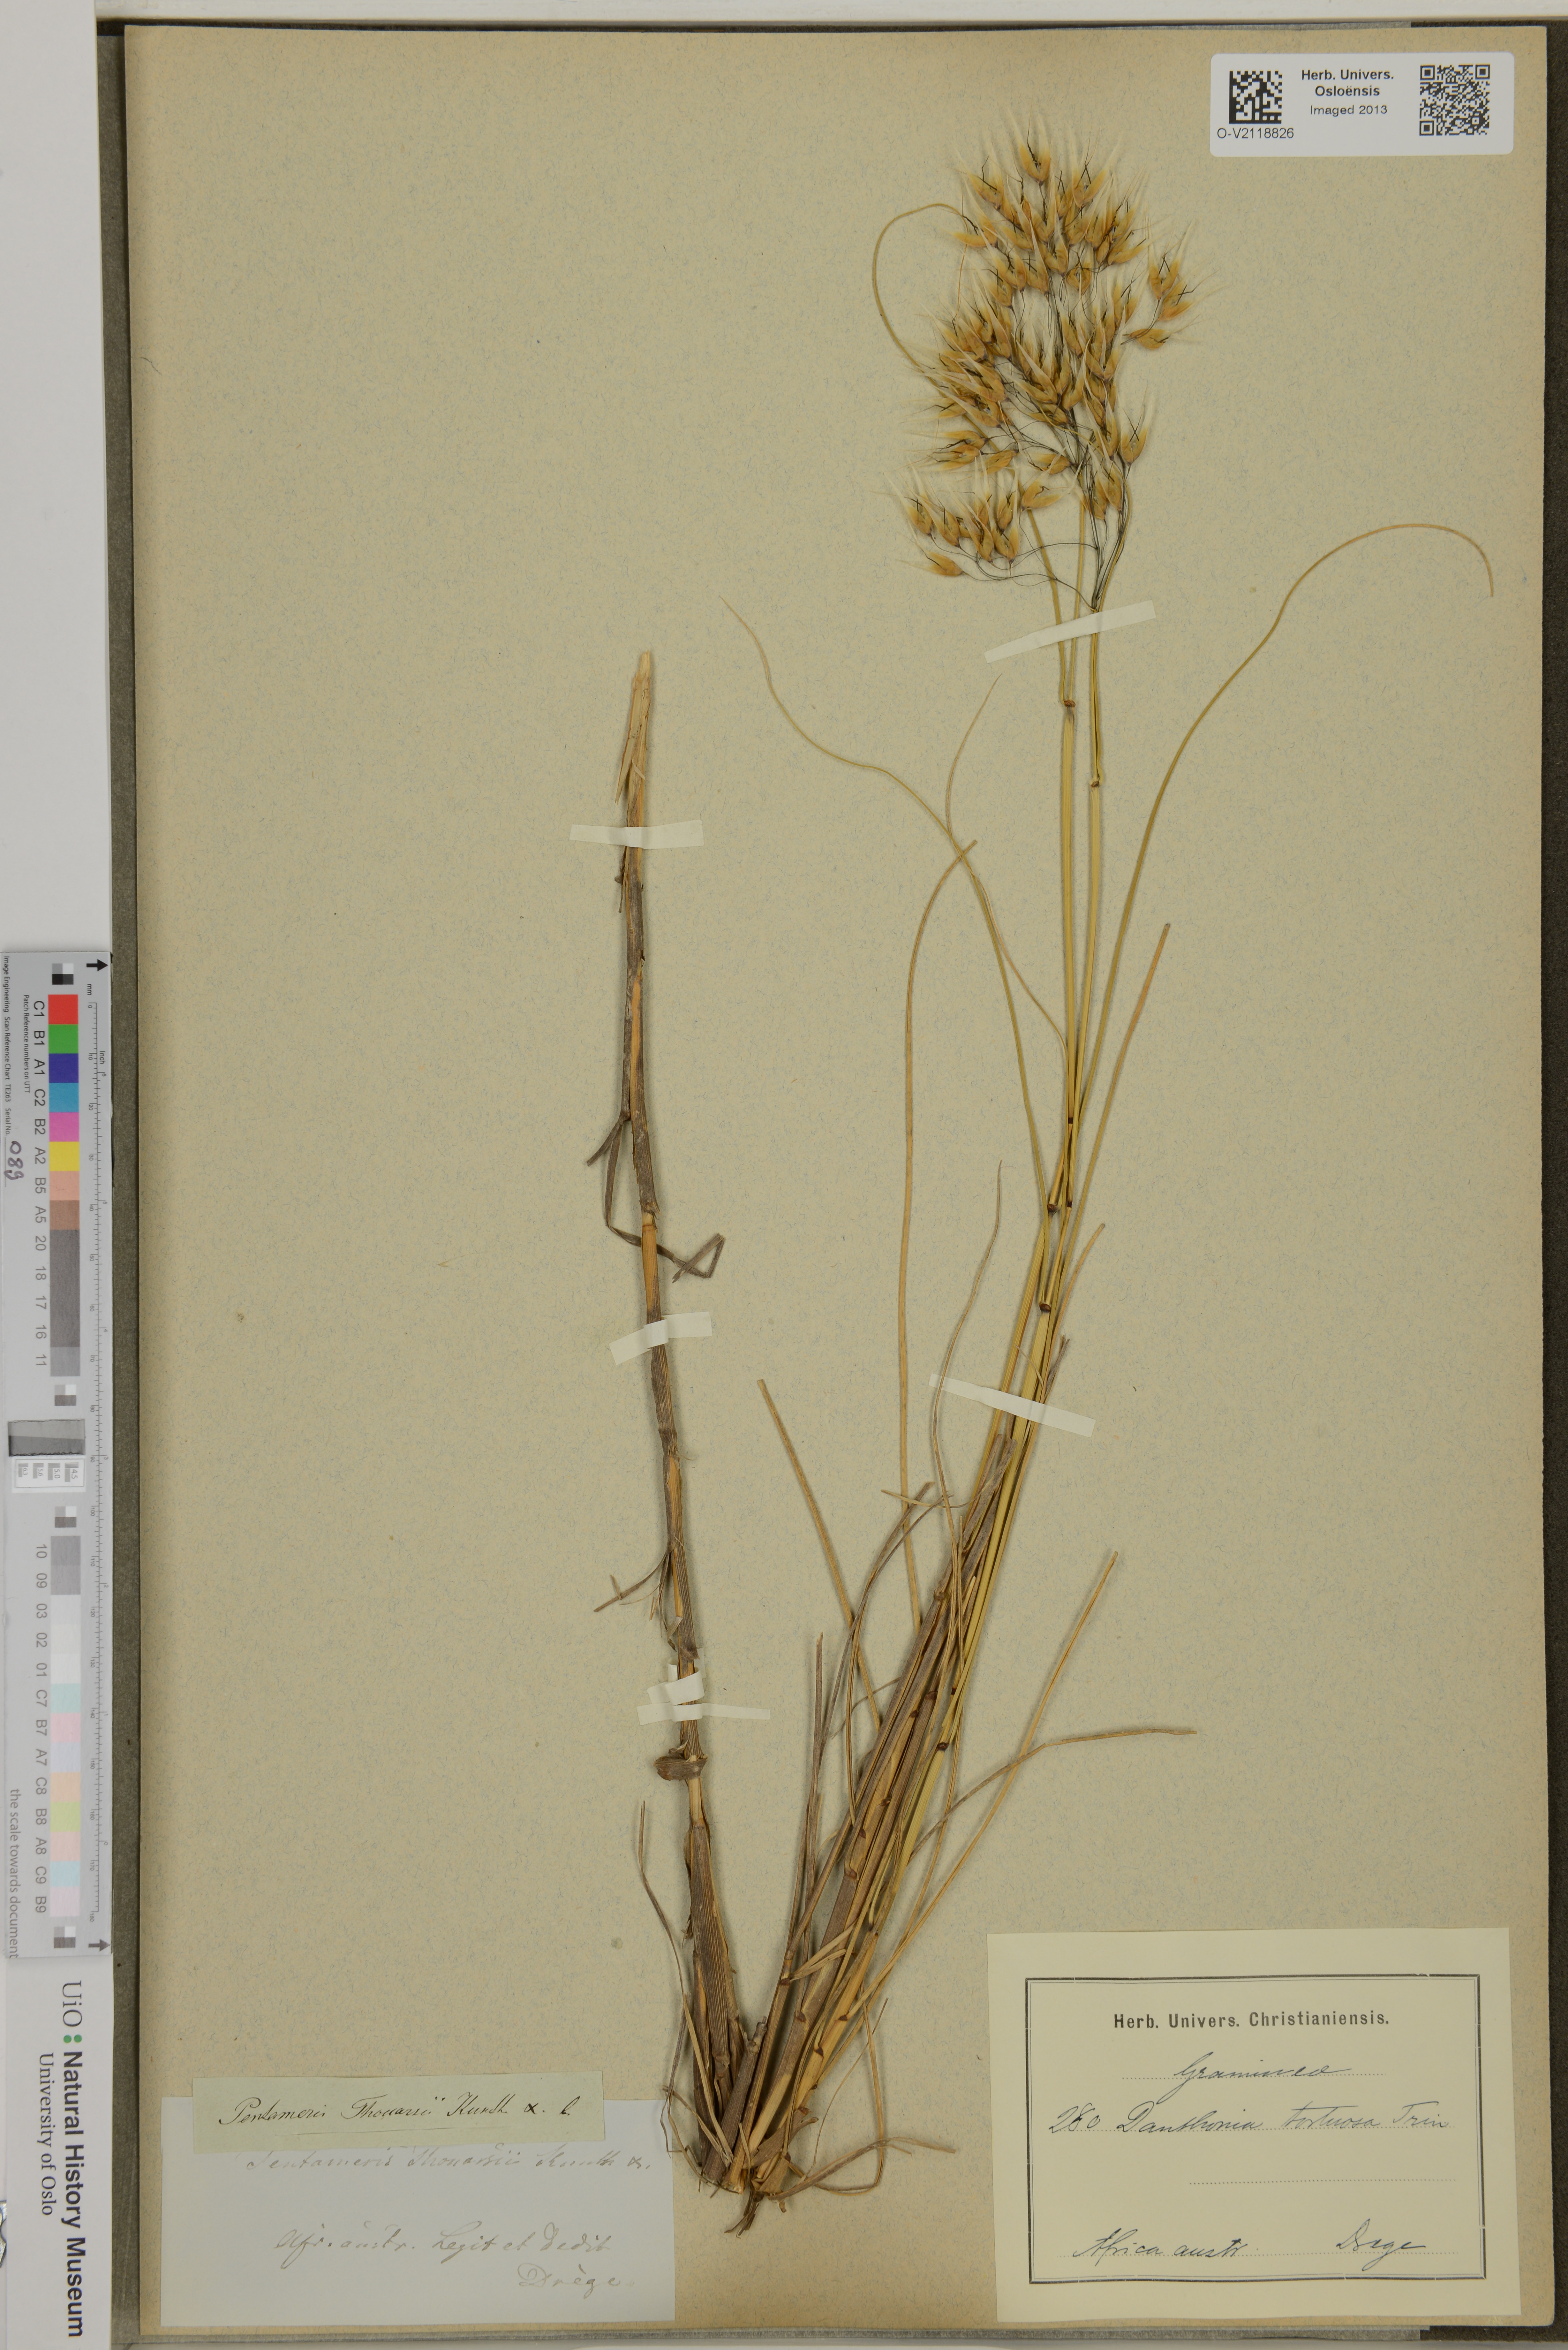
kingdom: Plantae
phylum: Tracheophyta
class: Liliopsida
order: Poales
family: Poaceae
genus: Pentameris
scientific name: Pentameris tortuosa
